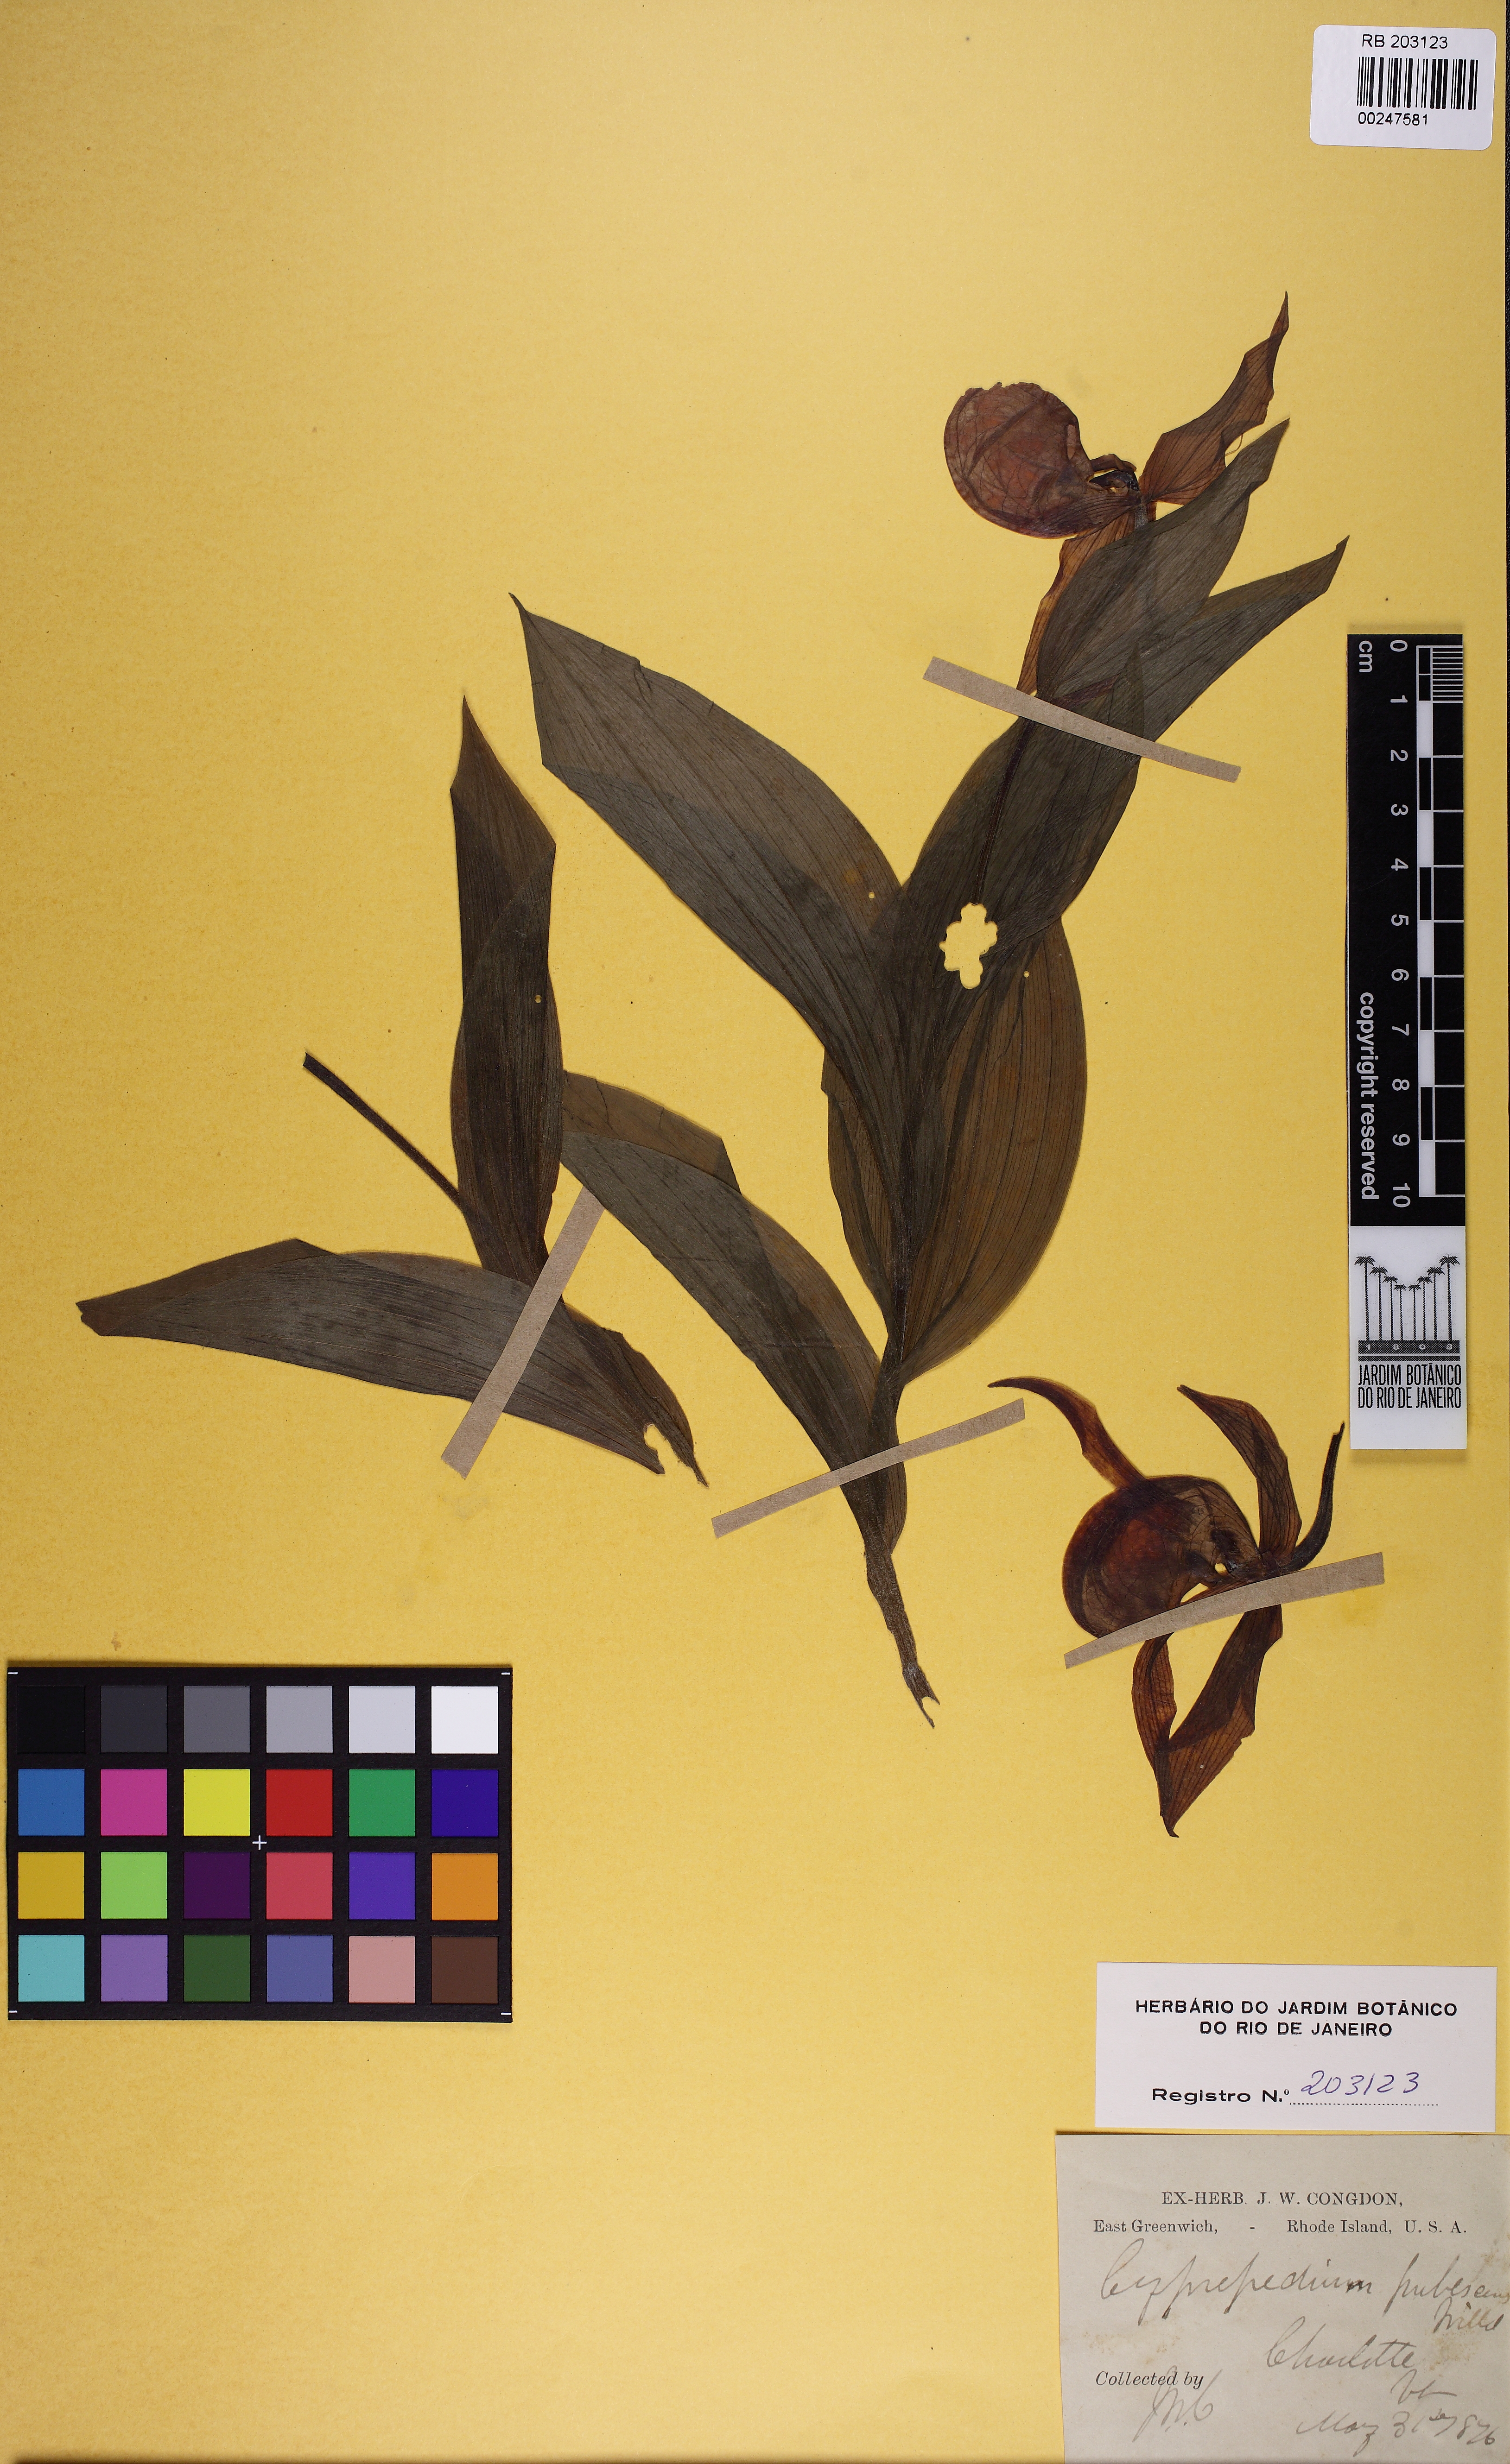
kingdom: Plantae
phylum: Tracheophyta
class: Liliopsida
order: Asparagales
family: Orchidaceae
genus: Cypripedium
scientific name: Cypripedium parviflorum
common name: American yellow lady's-slipper
